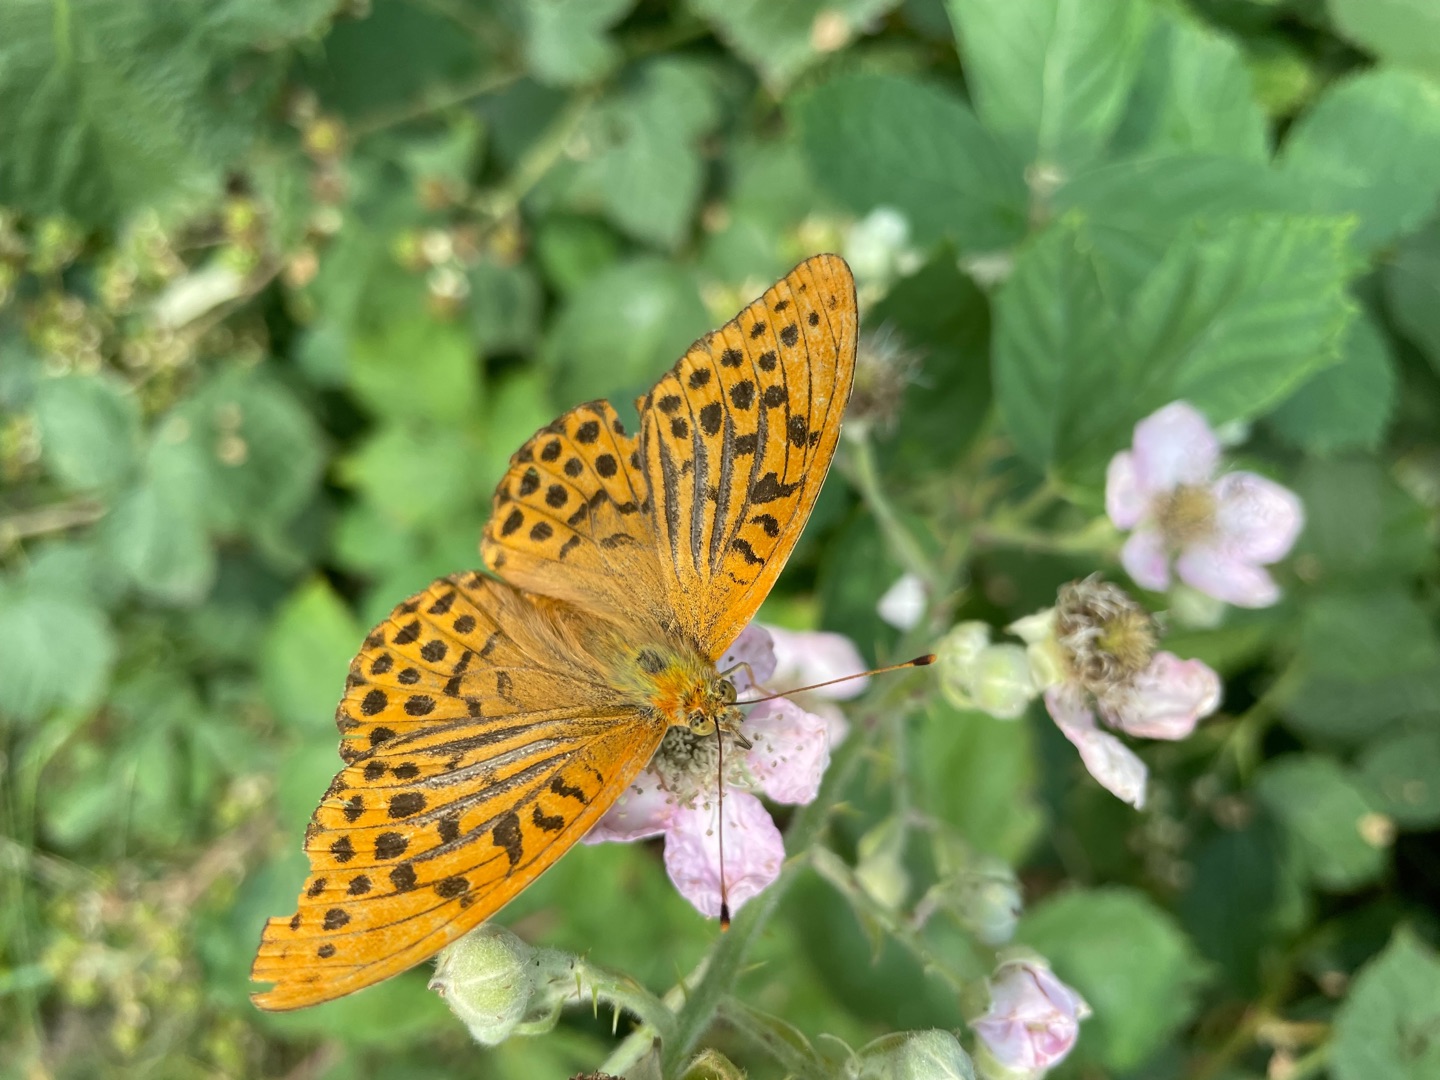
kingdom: Animalia
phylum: Arthropoda
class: Insecta
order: Lepidoptera
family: Nymphalidae
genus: Argynnis
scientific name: Argynnis paphia
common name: Kejserkåbe
